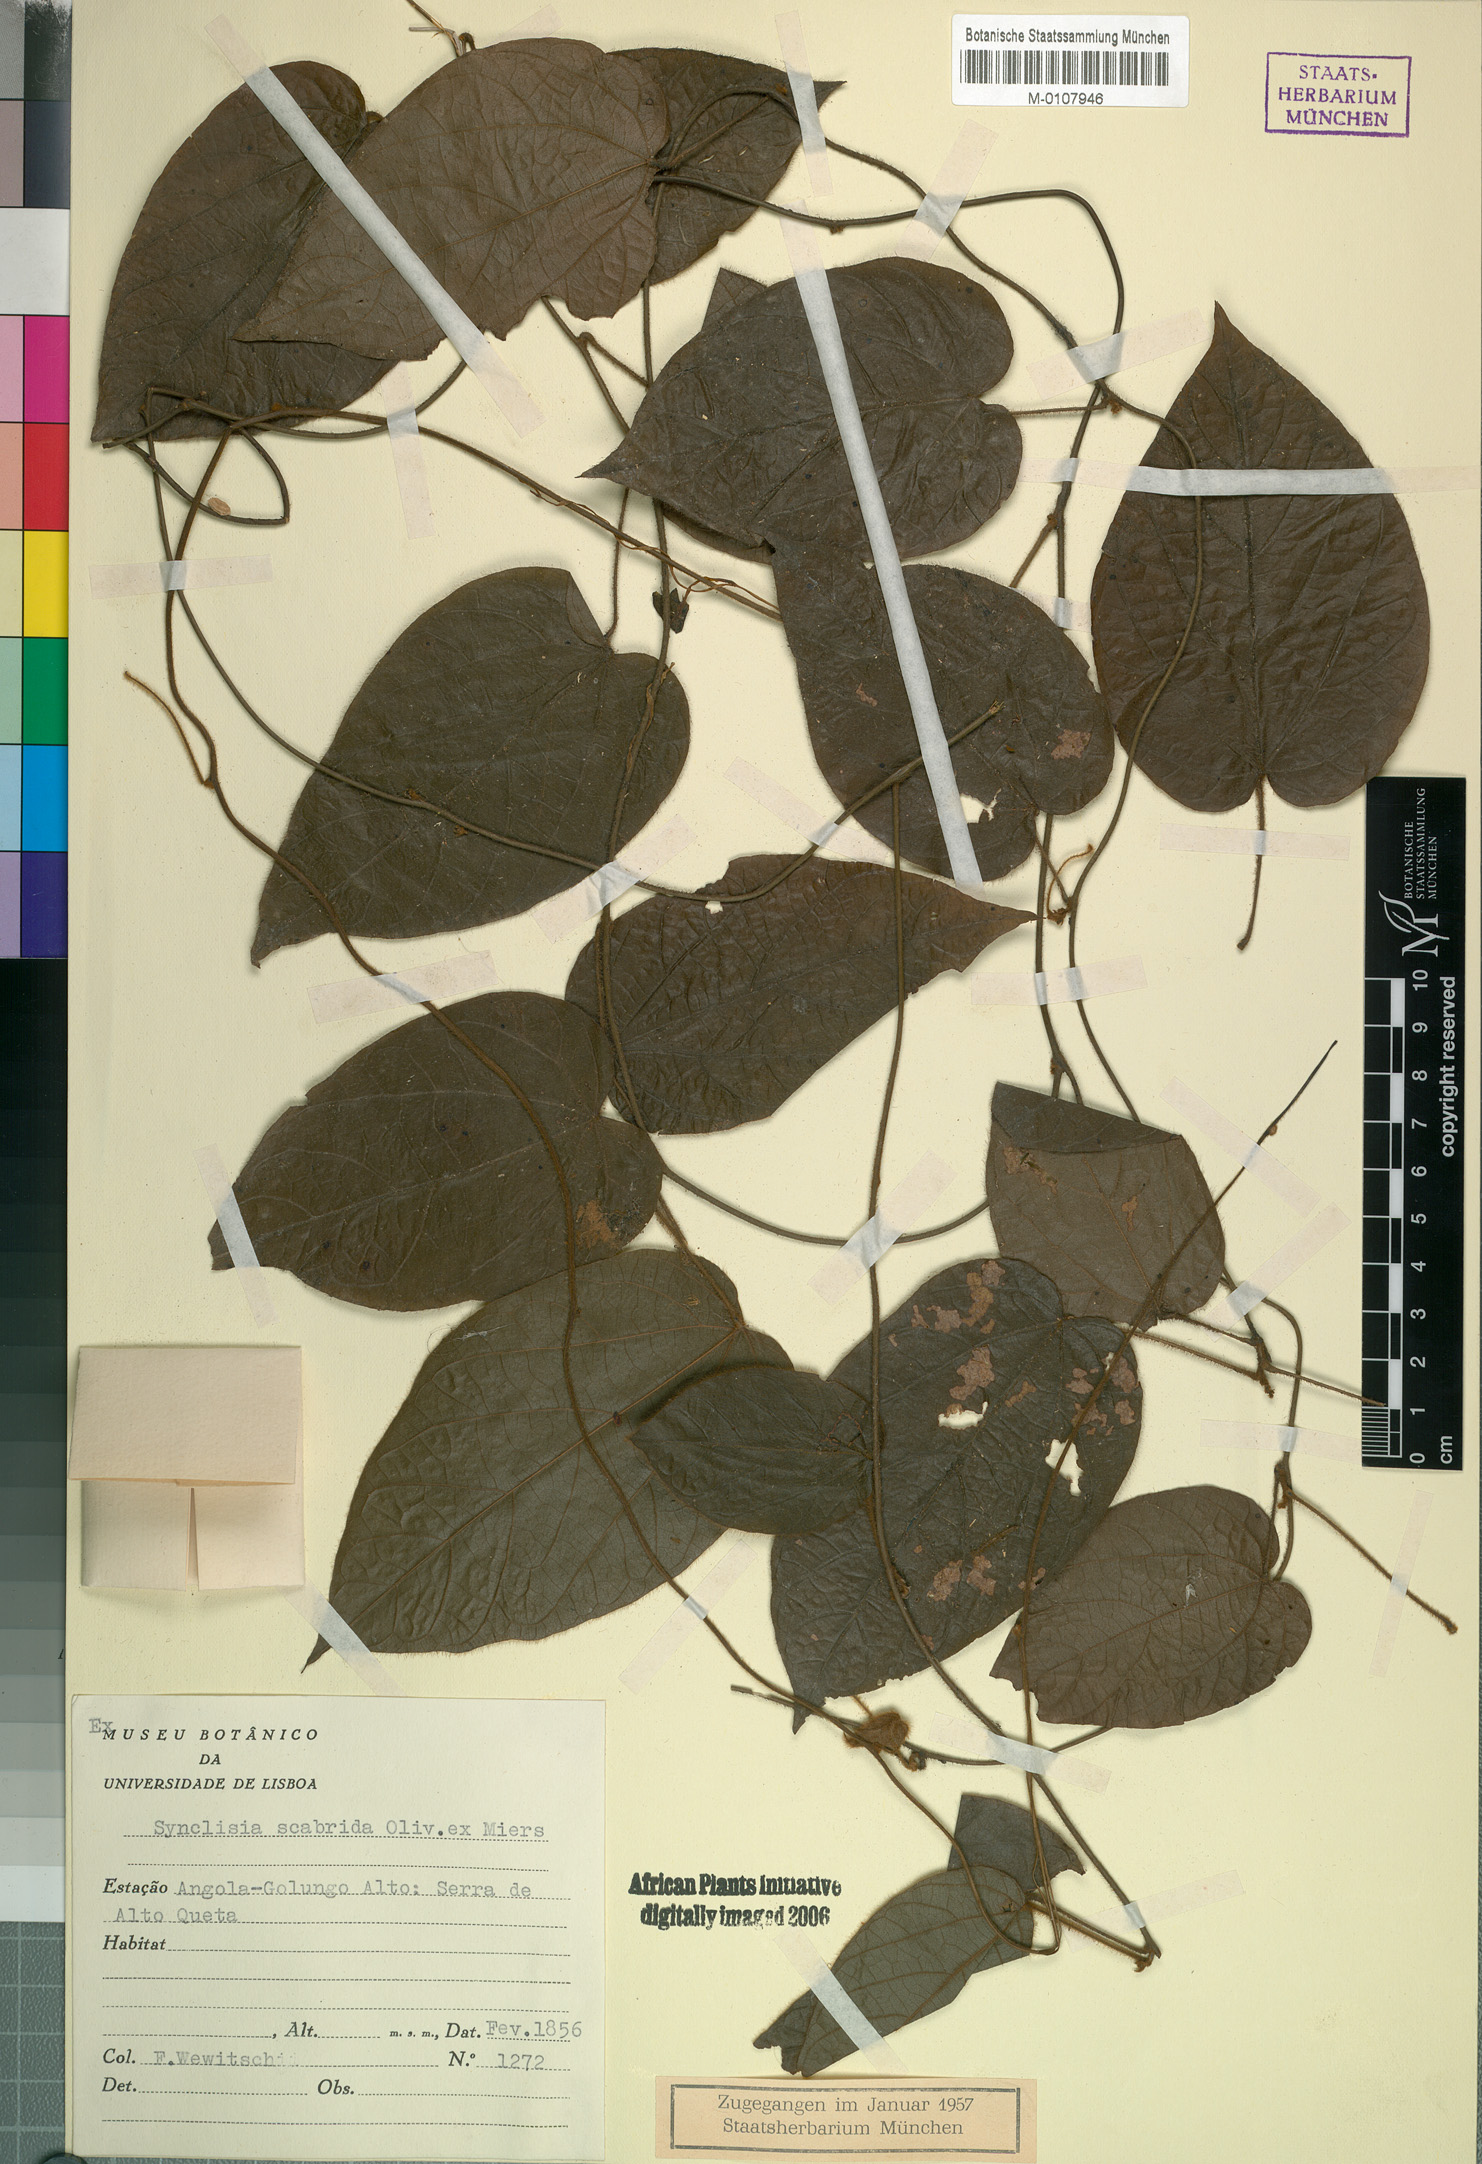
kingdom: Plantae
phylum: Tracheophyta
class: Magnoliopsida
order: Ranunculales
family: Menispermaceae
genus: Synclisia
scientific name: Synclisia scabrida
